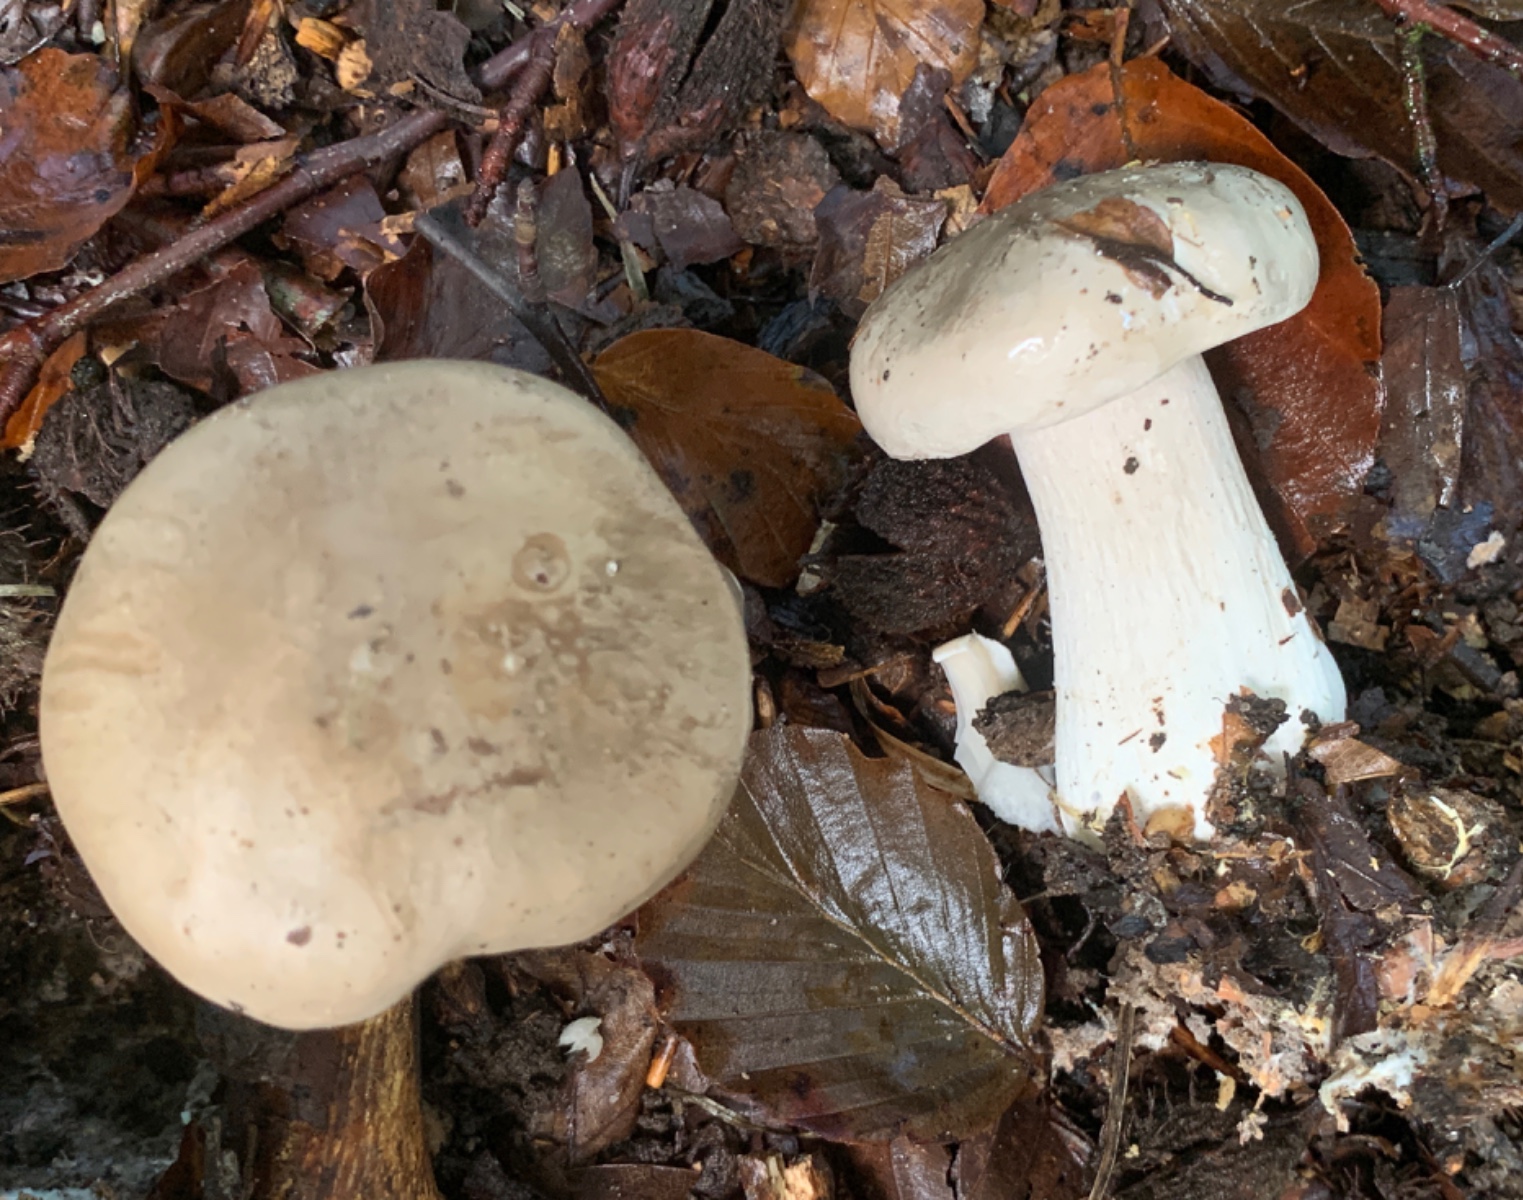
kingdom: Fungi
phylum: Basidiomycota
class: Agaricomycetes
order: Agaricales
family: Tricholomataceae
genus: Clitocybe
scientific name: Clitocybe nebularis
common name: tåge-tragthat
